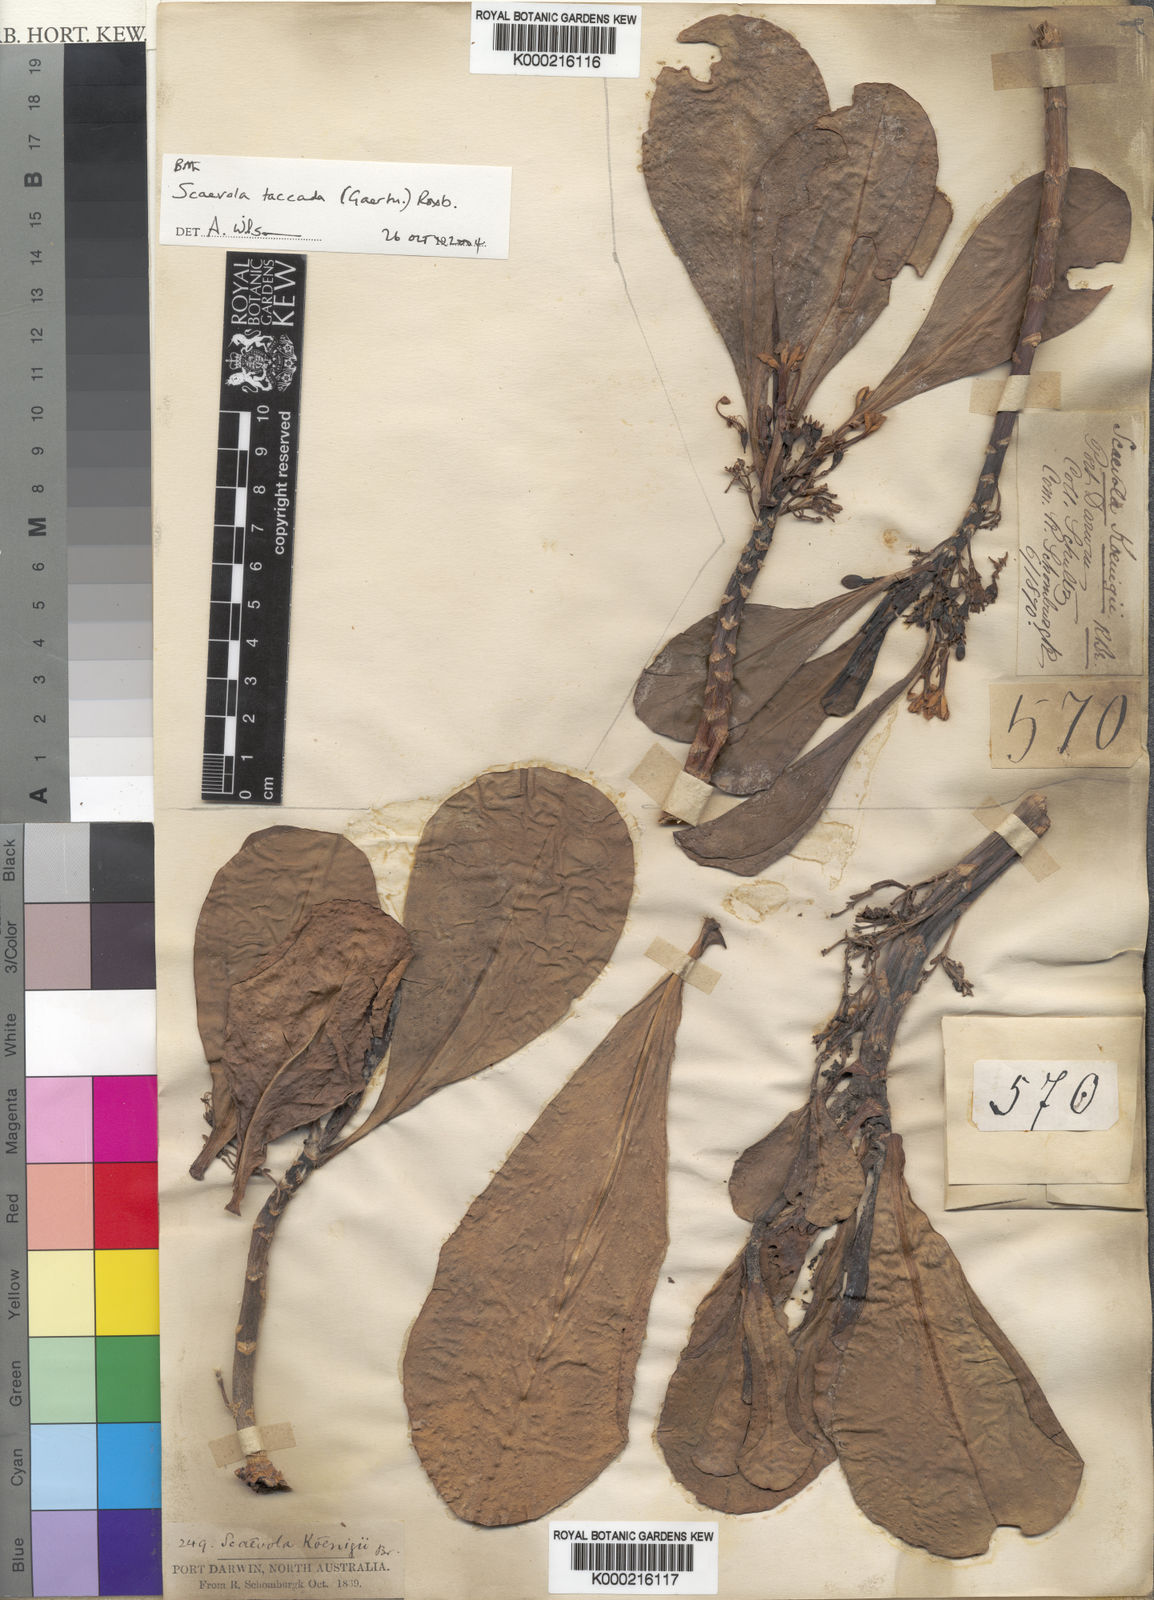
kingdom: Plantae
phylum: Tracheophyta
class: Magnoliopsida
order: Asterales
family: Goodeniaceae
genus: Scaevola
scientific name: Scaevola taccada
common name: Sea lettucetree
